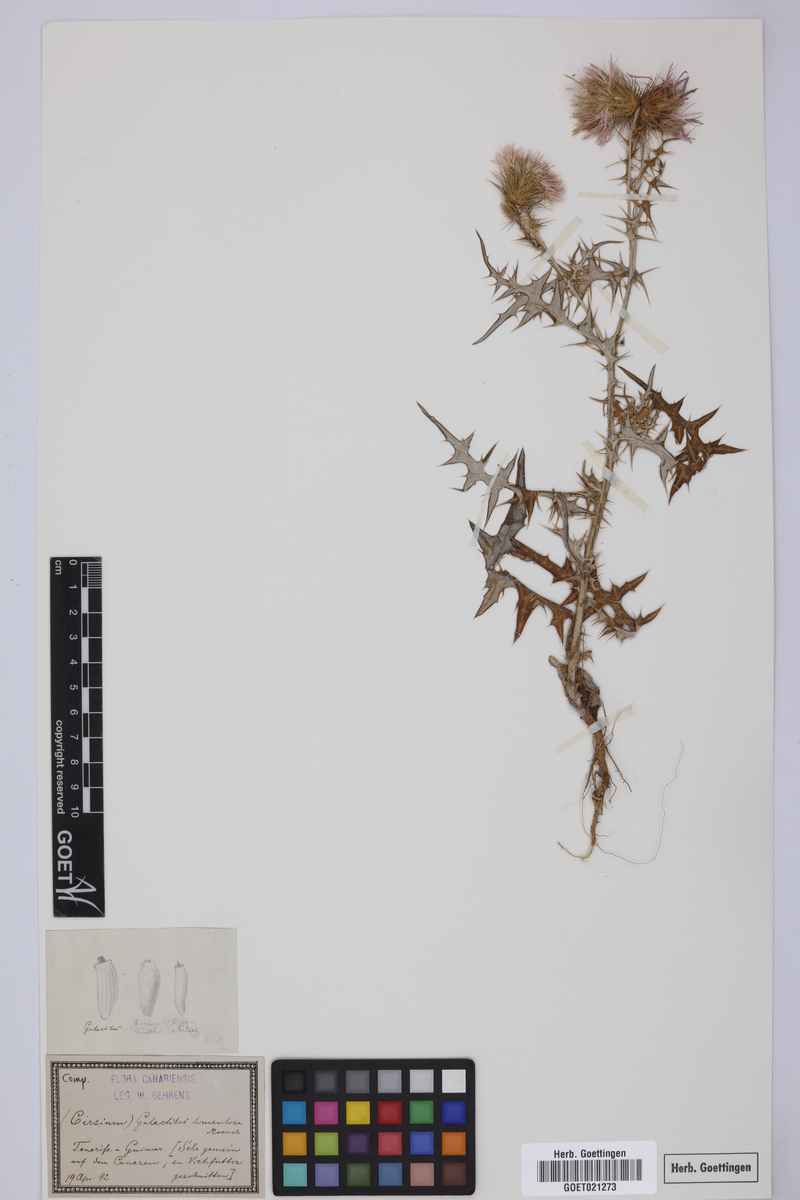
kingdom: Plantae
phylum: Tracheophyta
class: Magnoliopsida
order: Asterales
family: Asteraceae
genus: Galactites
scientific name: Galactites tomentosa
